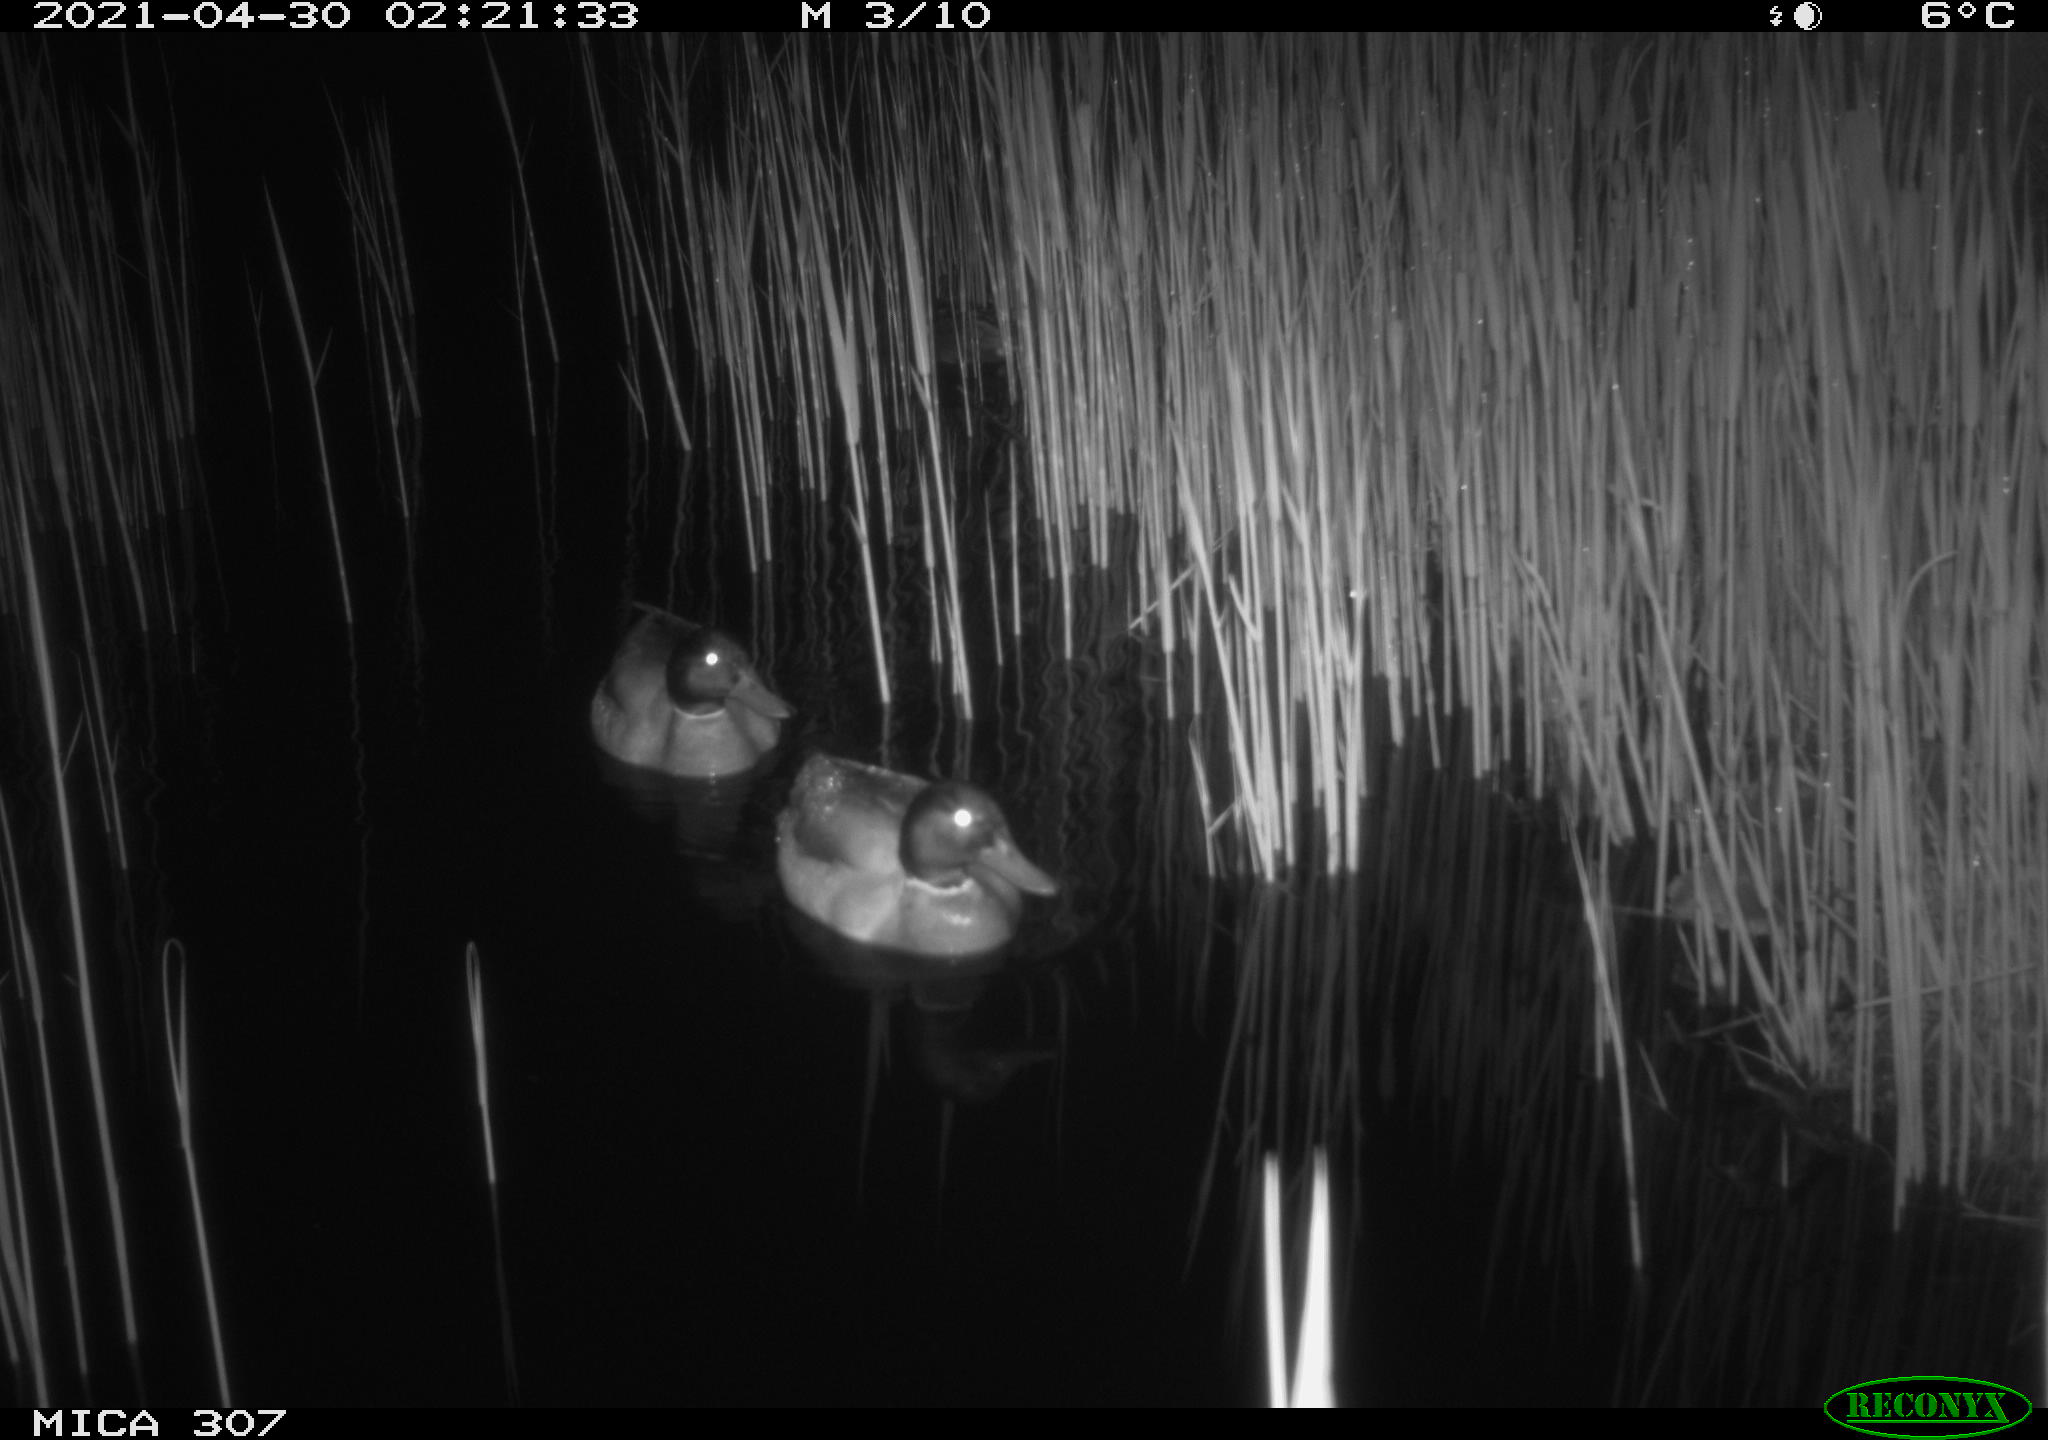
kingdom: Animalia
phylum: Chordata
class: Aves
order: Anseriformes
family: Anatidae
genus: Anas
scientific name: Anas platyrhynchos
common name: Mallard
